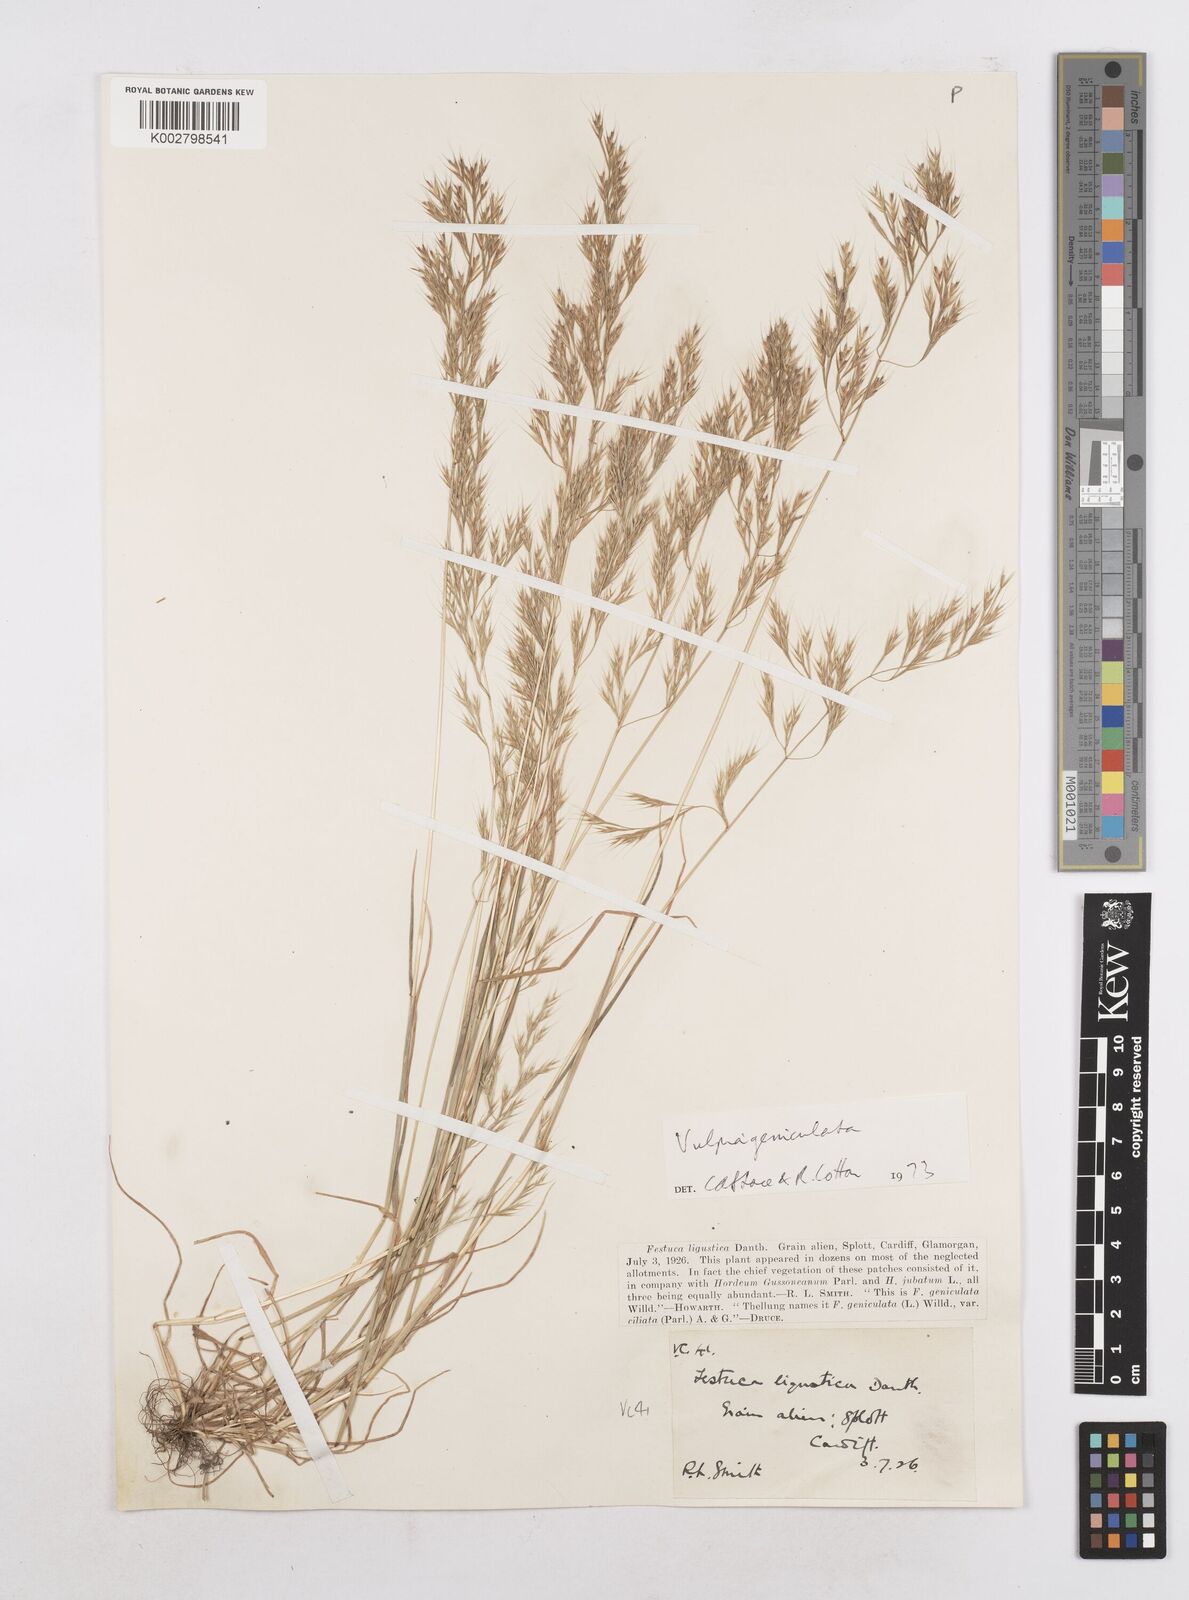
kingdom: Plantae
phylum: Tracheophyta
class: Liliopsida
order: Poales
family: Poaceae
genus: Festuca
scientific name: Festuca geniculata
